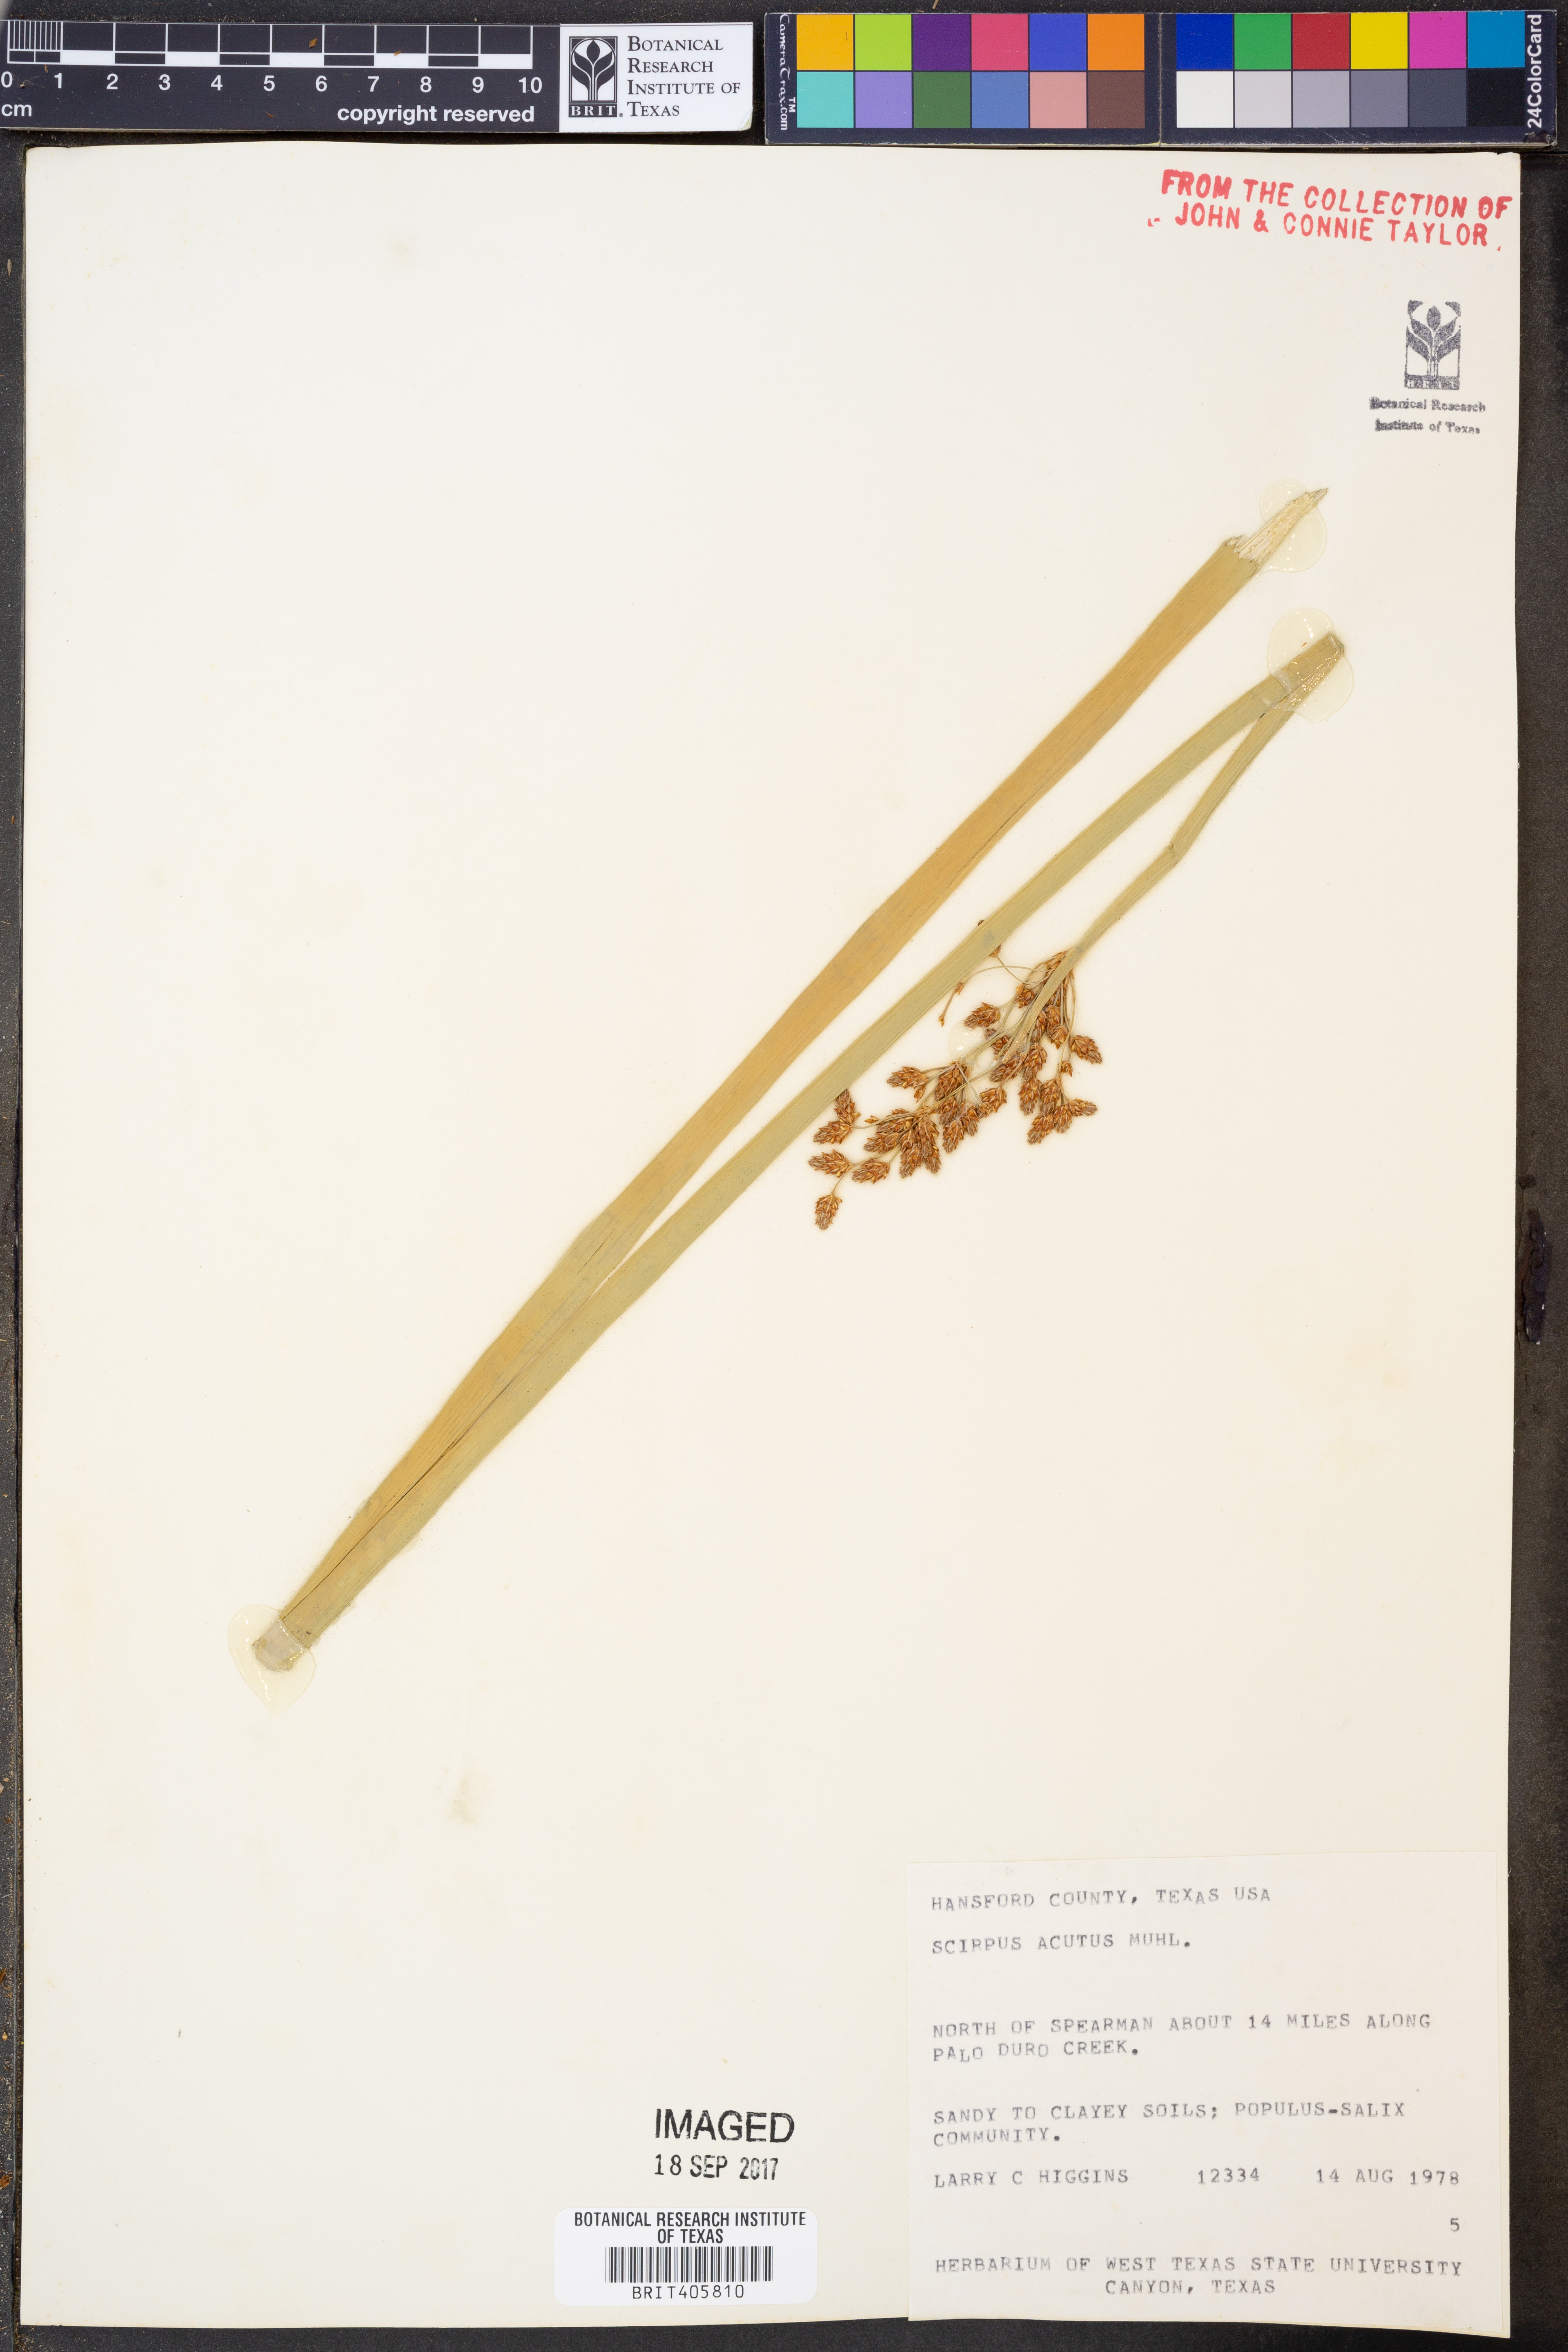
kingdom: Plantae
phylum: Tracheophyta
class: Liliopsida
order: Poales
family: Cyperaceae
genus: Scirpus
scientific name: Scirpus acutus
